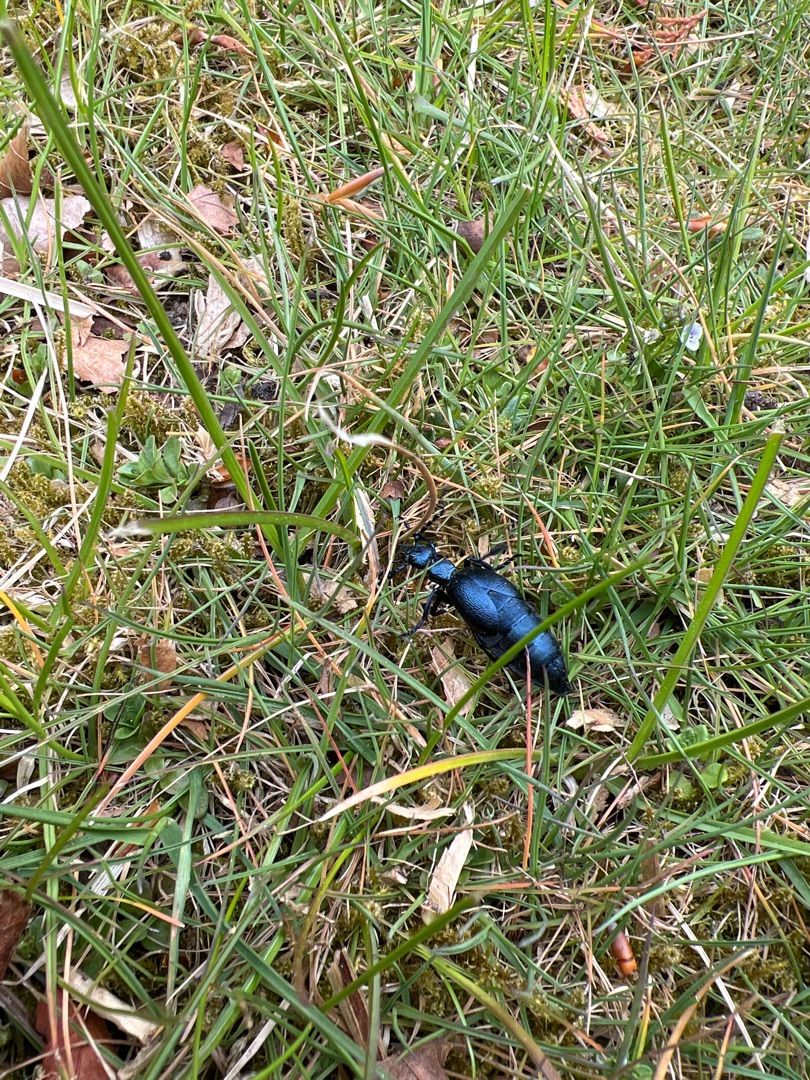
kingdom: Animalia
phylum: Arthropoda
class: Insecta
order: Coleoptera
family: Meloidae
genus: Meloe
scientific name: Meloe violaceus
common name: Blå oliebille
